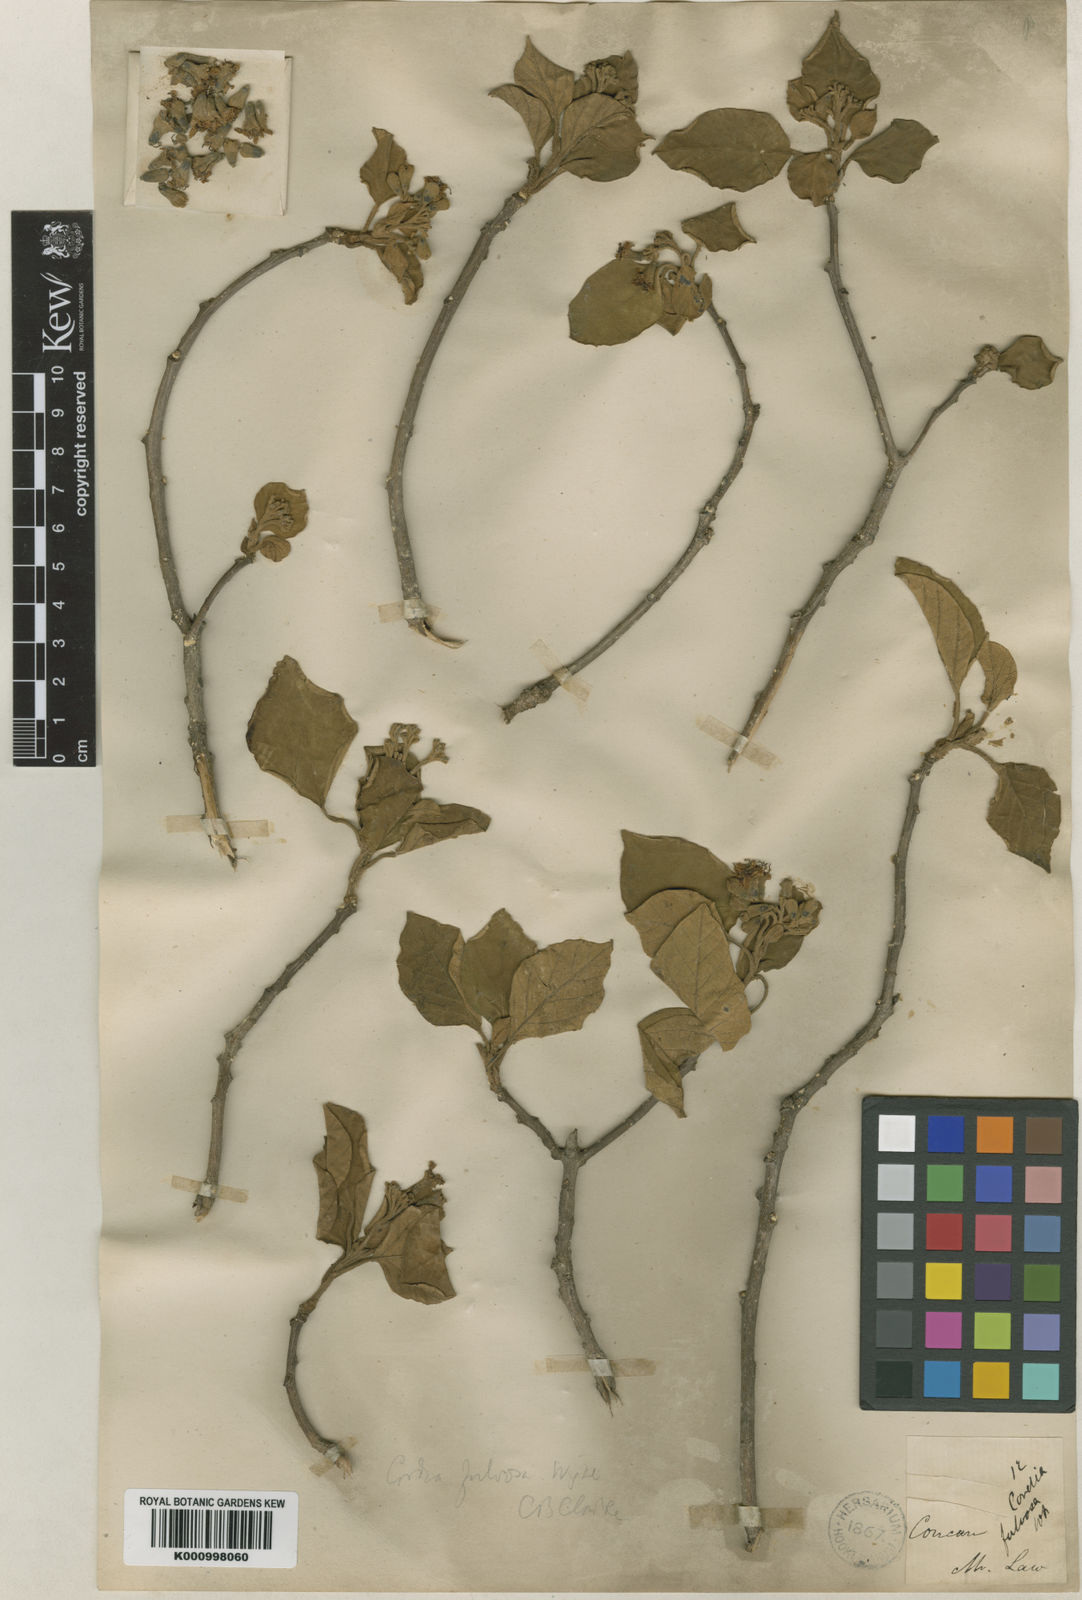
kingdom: Plantae
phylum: Tracheophyta
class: Magnoliopsida
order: Boraginales
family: Cordiaceae
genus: Cordia
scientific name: Cordia myxa
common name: Assyrian plum
